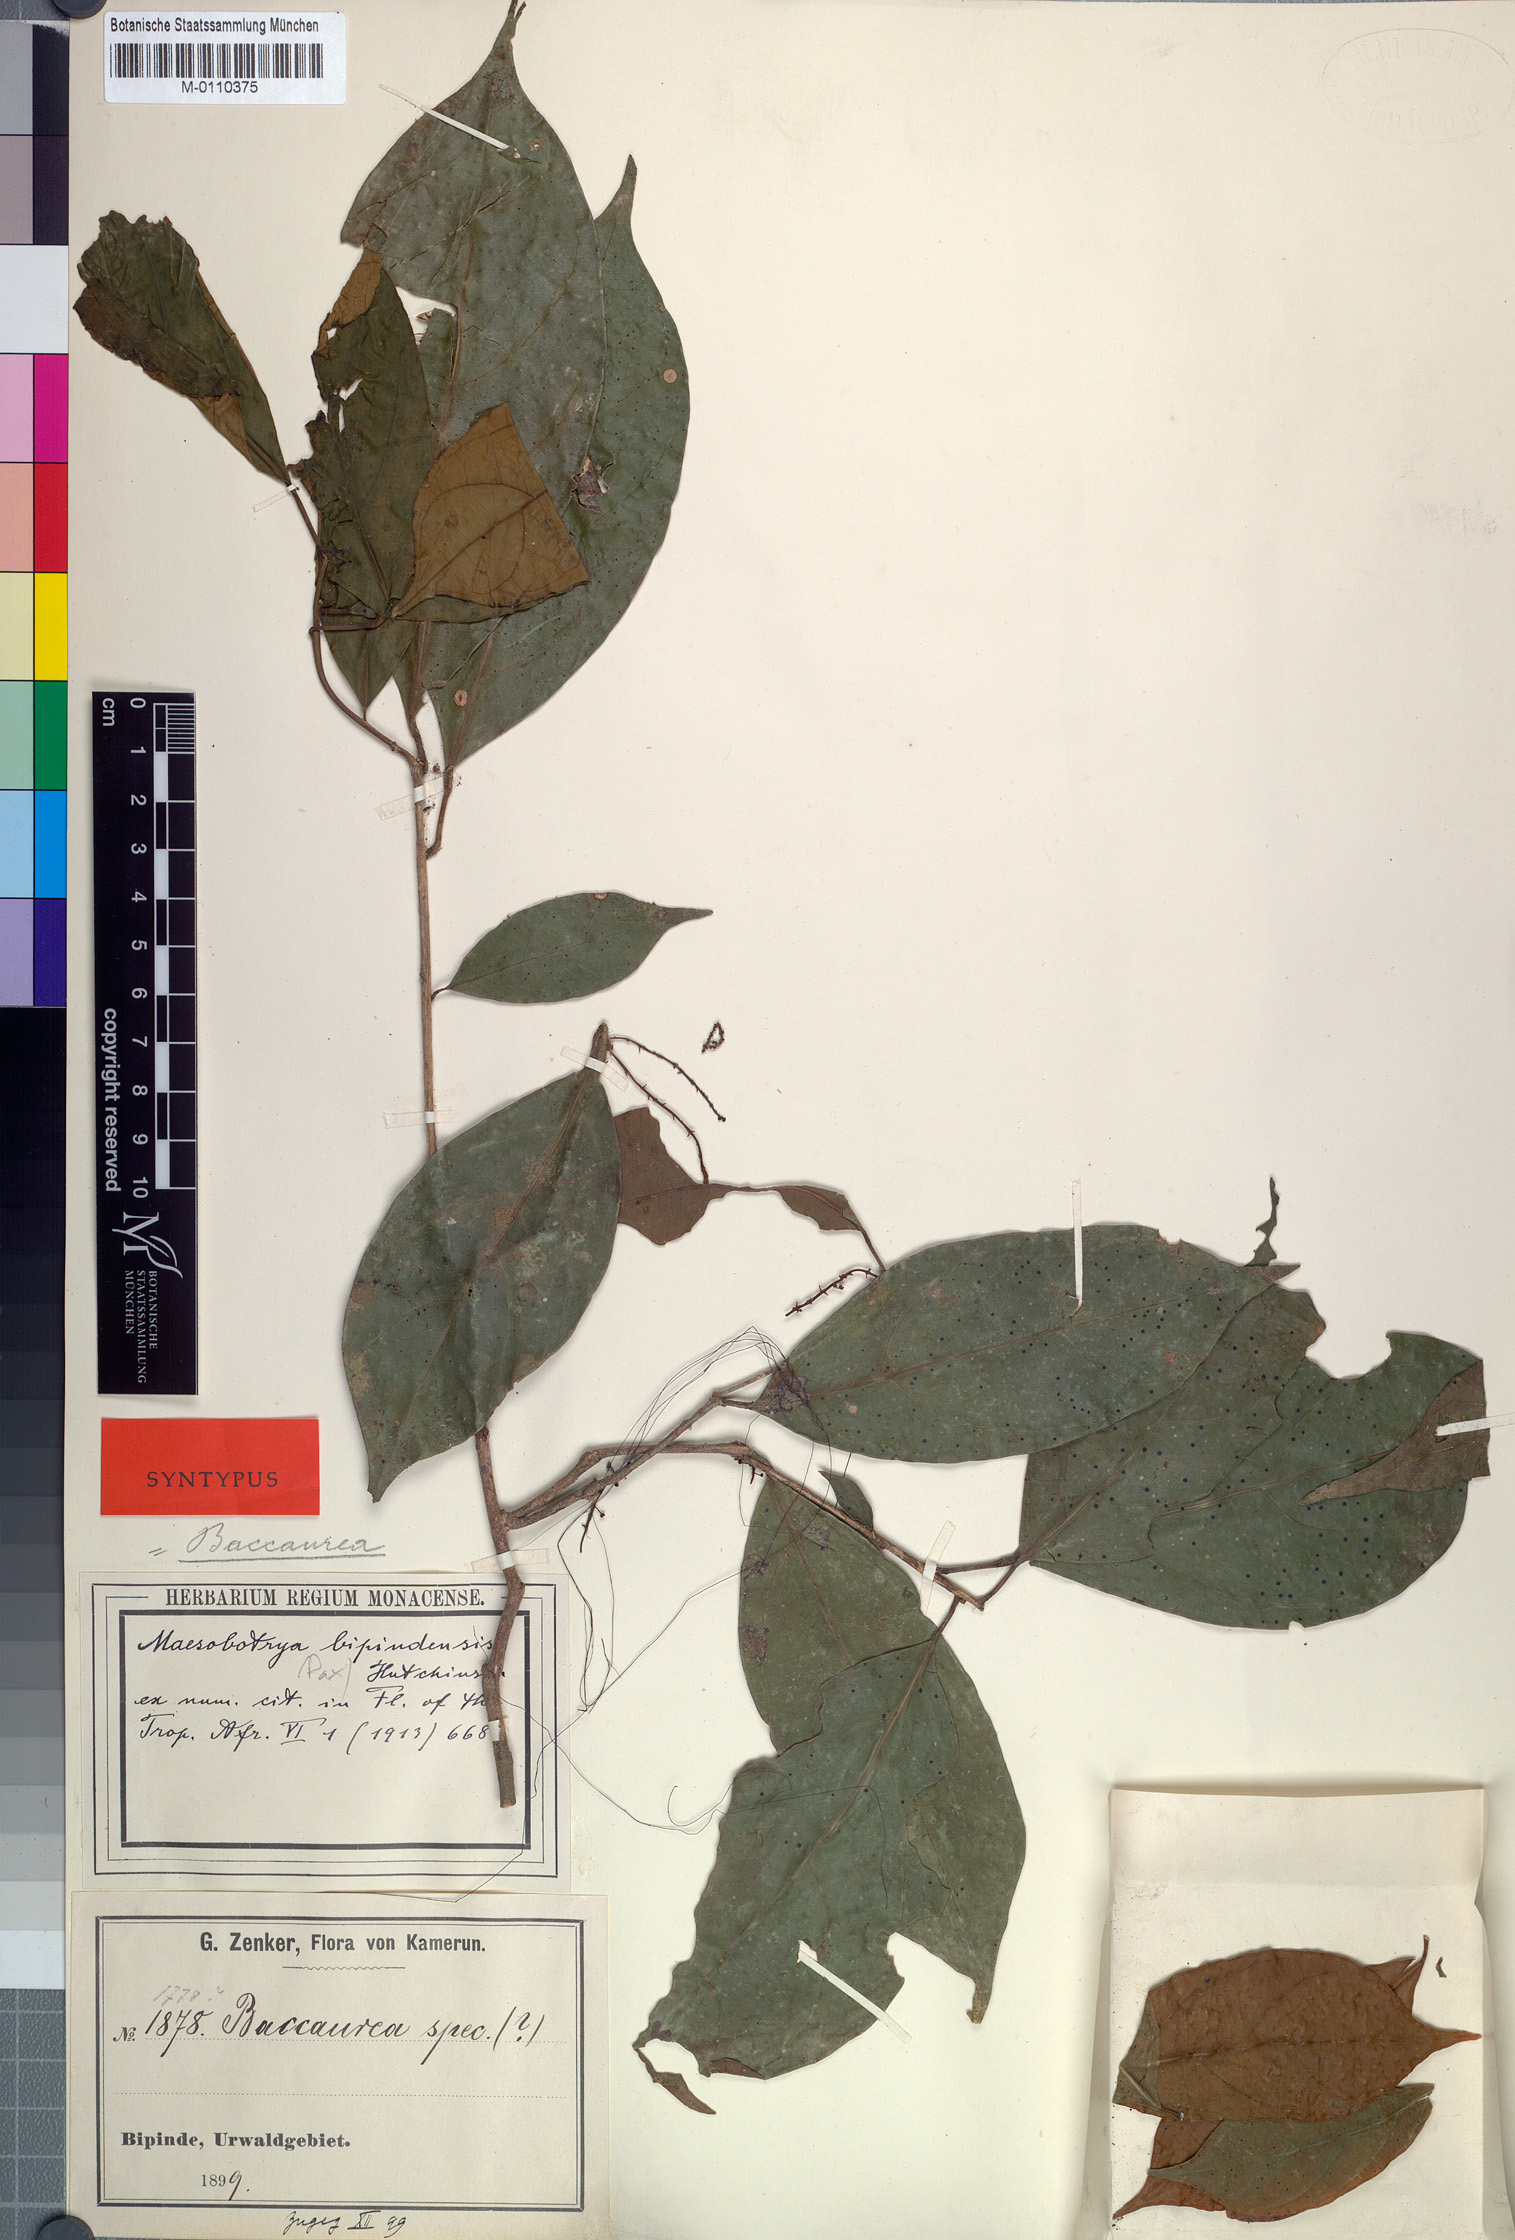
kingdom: Plantae
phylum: Tracheophyta
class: Magnoliopsida
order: Malpighiales
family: Phyllanthaceae
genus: Maesobotrya
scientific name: Maesobotrya griffoniana
